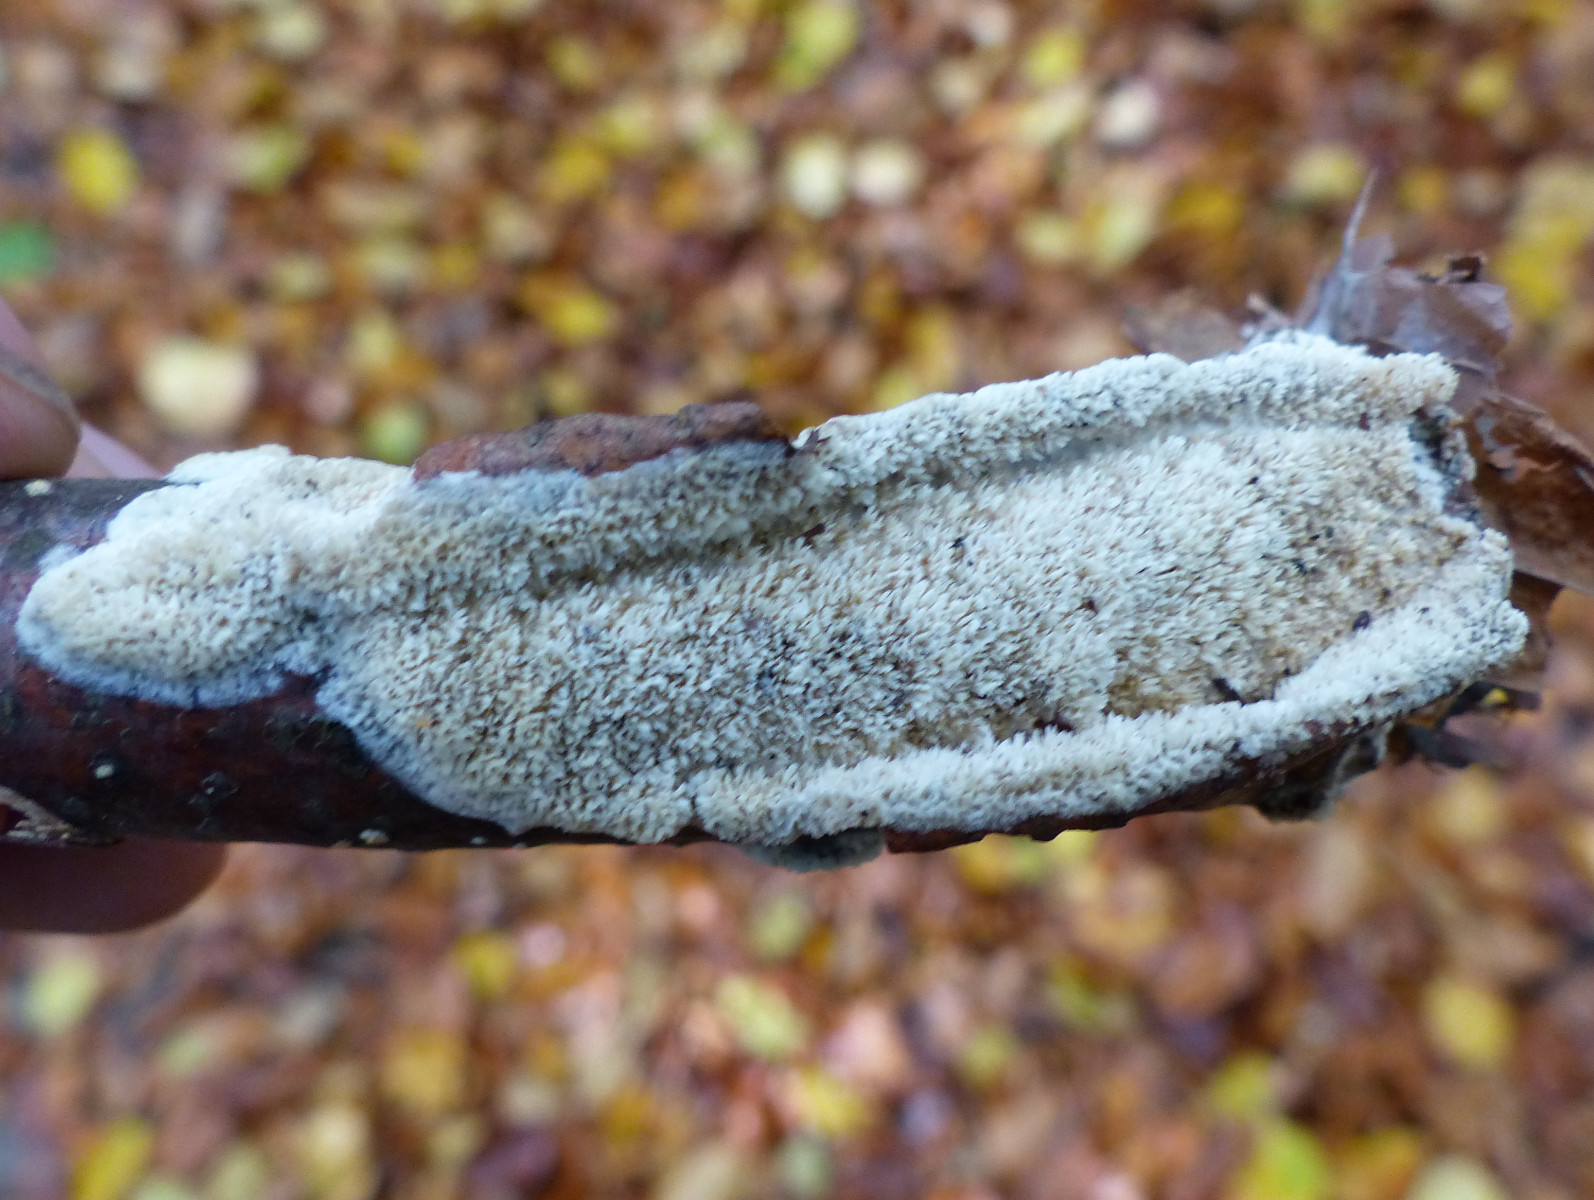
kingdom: Fungi
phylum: Basidiomycota
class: Agaricomycetes
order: Hymenochaetales
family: Schizoporaceae
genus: Schizopora
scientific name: Schizopora paradoxa
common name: hvid tandsvamp
